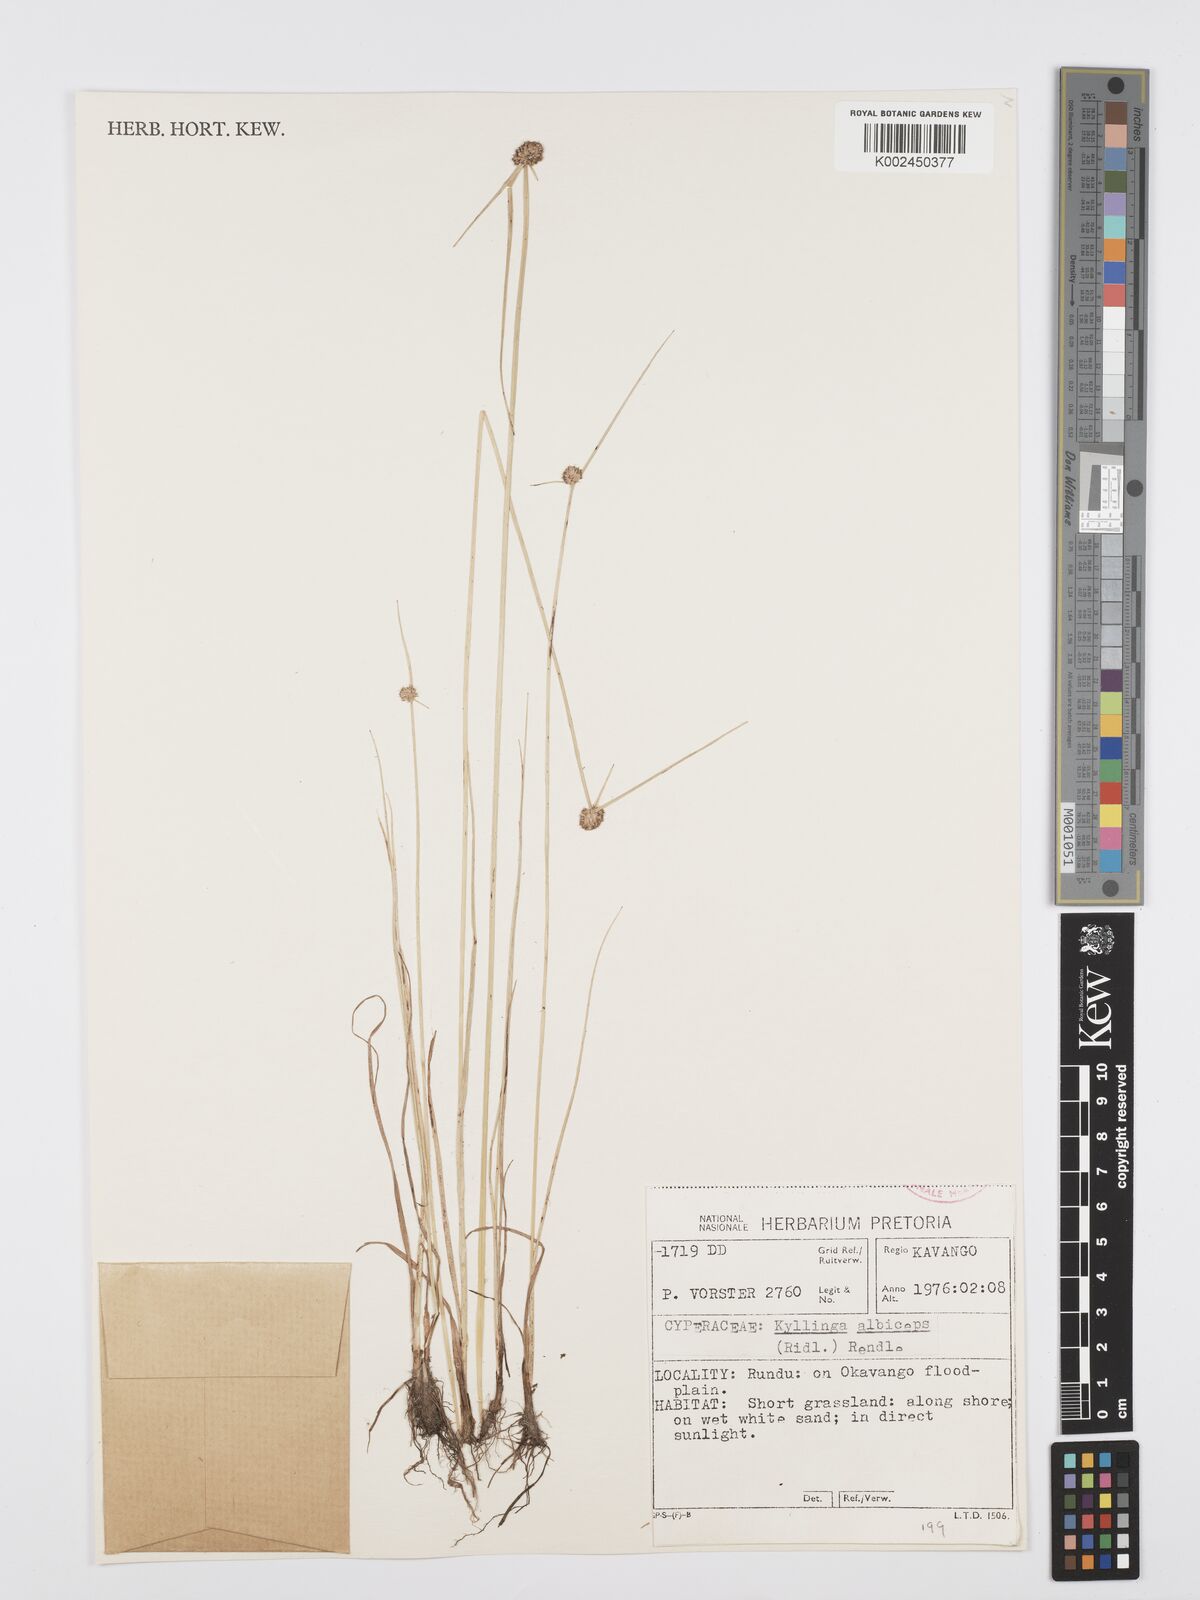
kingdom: Plantae
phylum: Tracheophyta
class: Liliopsida
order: Poales
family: Cyperaceae
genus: Cyperus
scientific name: Cyperus
